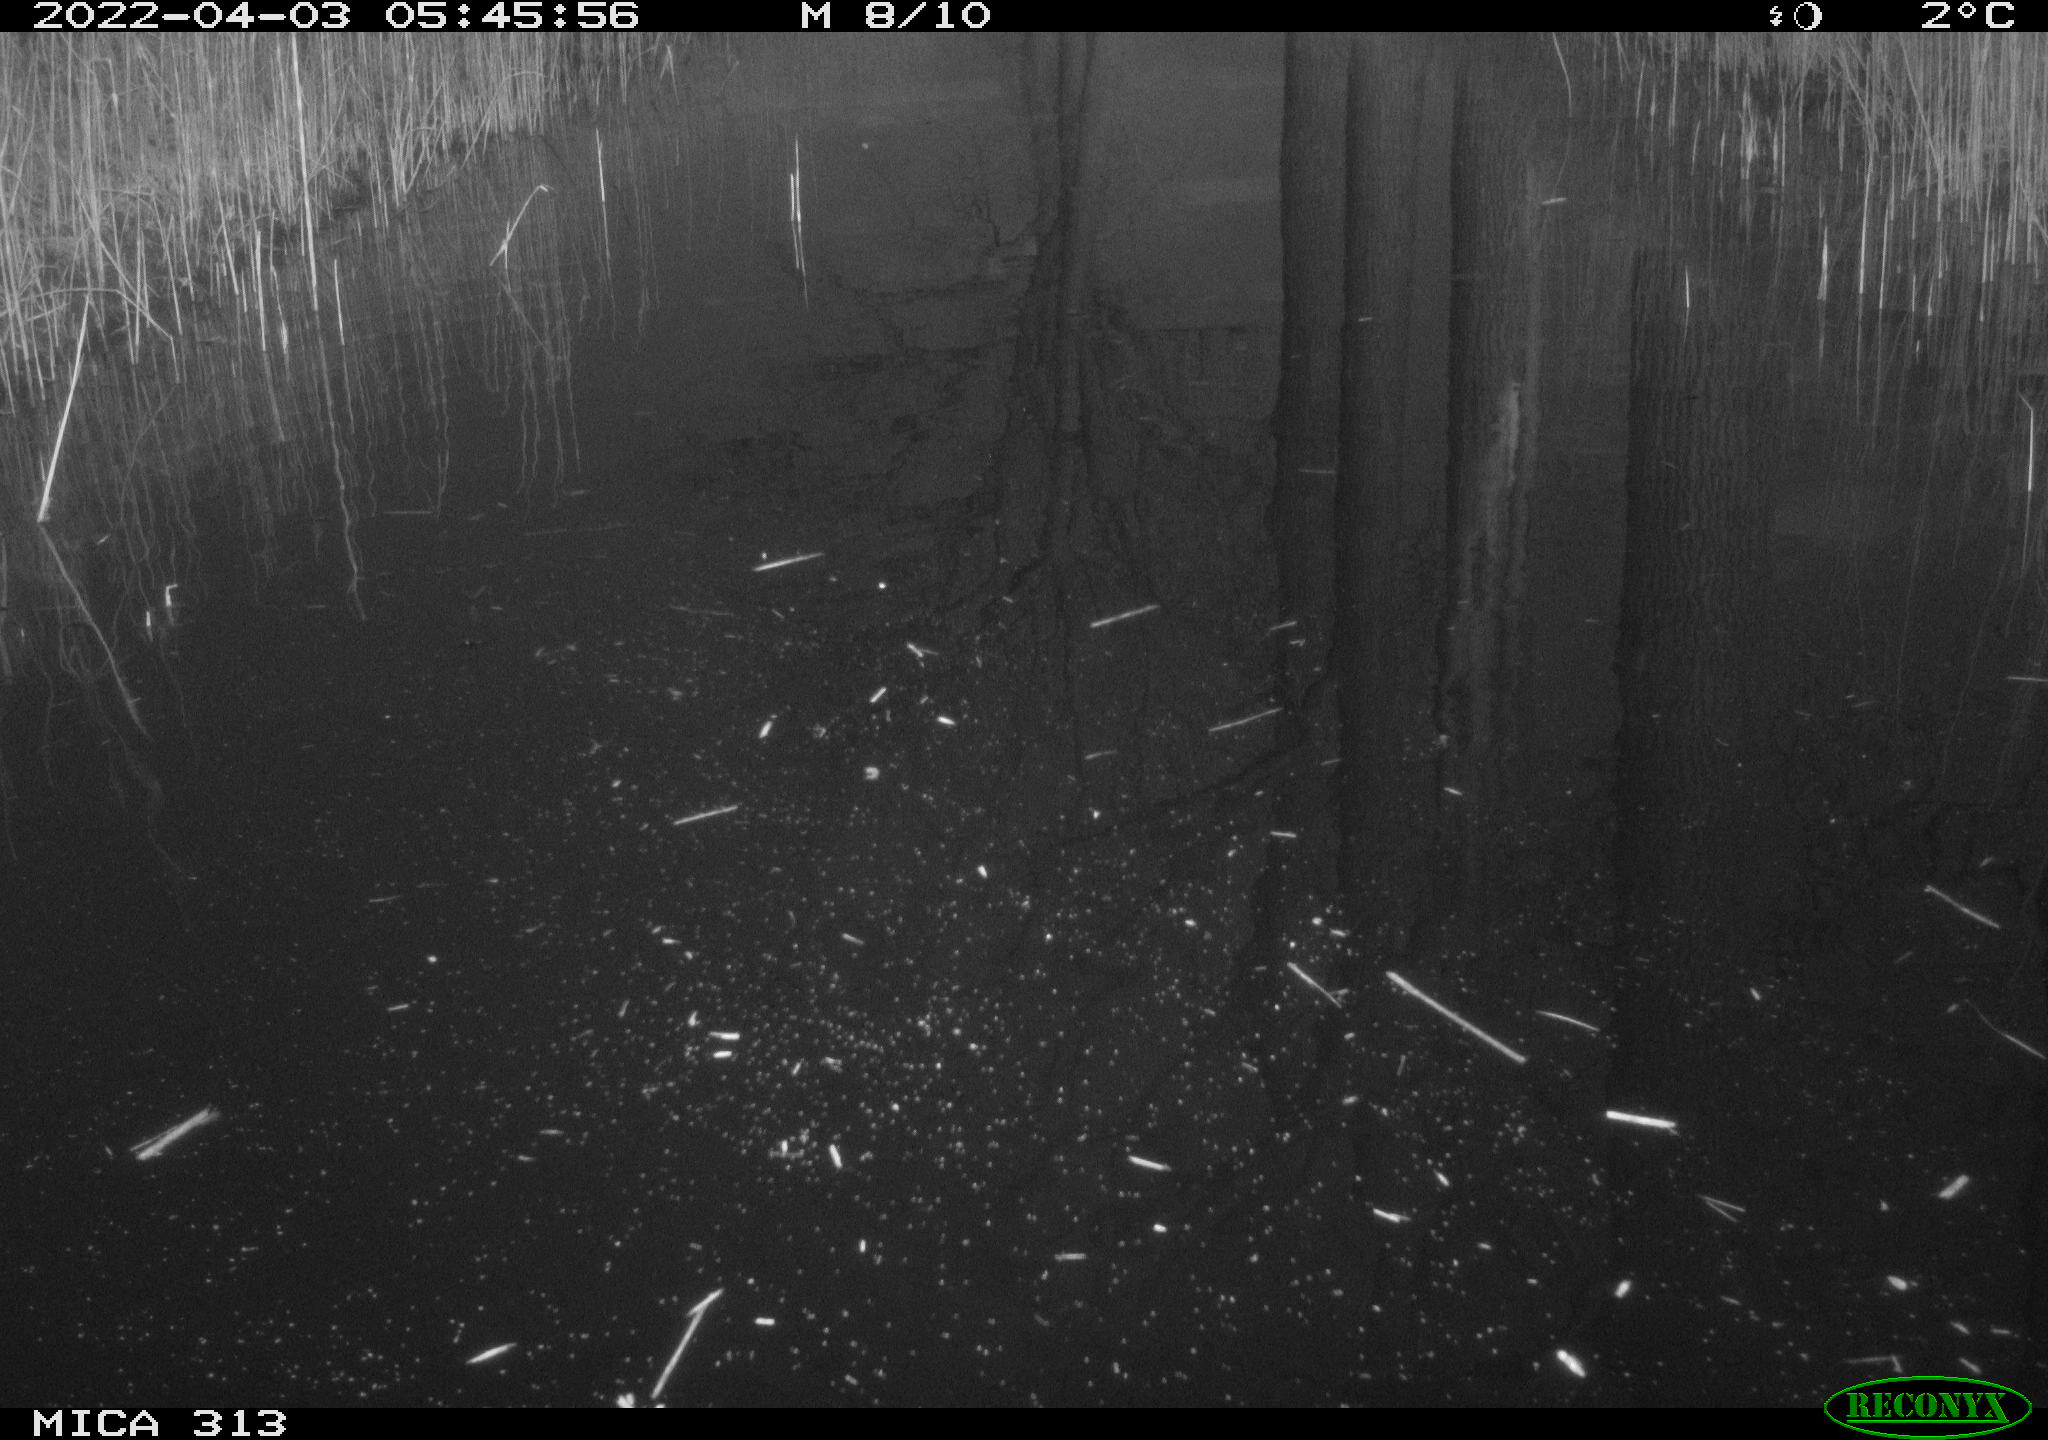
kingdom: Animalia
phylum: Chordata
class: Aves
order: Gruiformes
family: Rallidae
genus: Gallinula
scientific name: Gallinula chloropus
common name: Common moorhen
